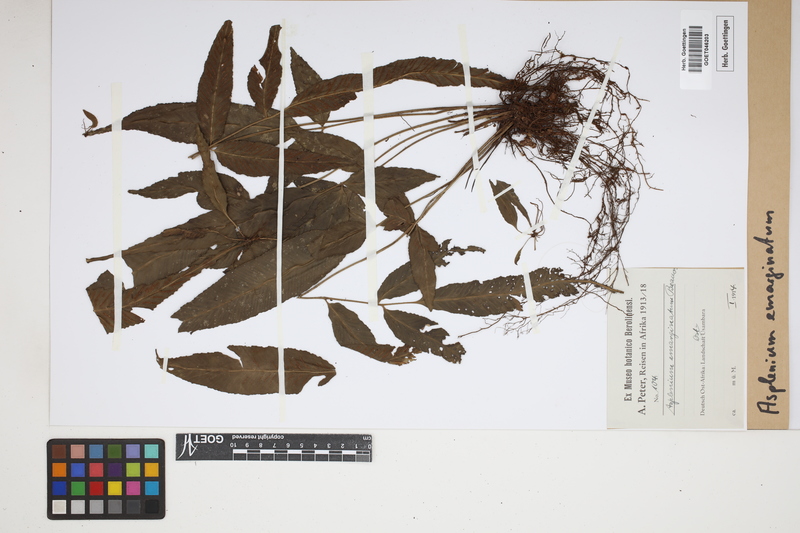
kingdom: Plantae
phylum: Tracheophyta
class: Polypodiopsida
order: Polypodiales
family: Aspleniaceae
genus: Asplenium
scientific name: Asplenium emarginatum
